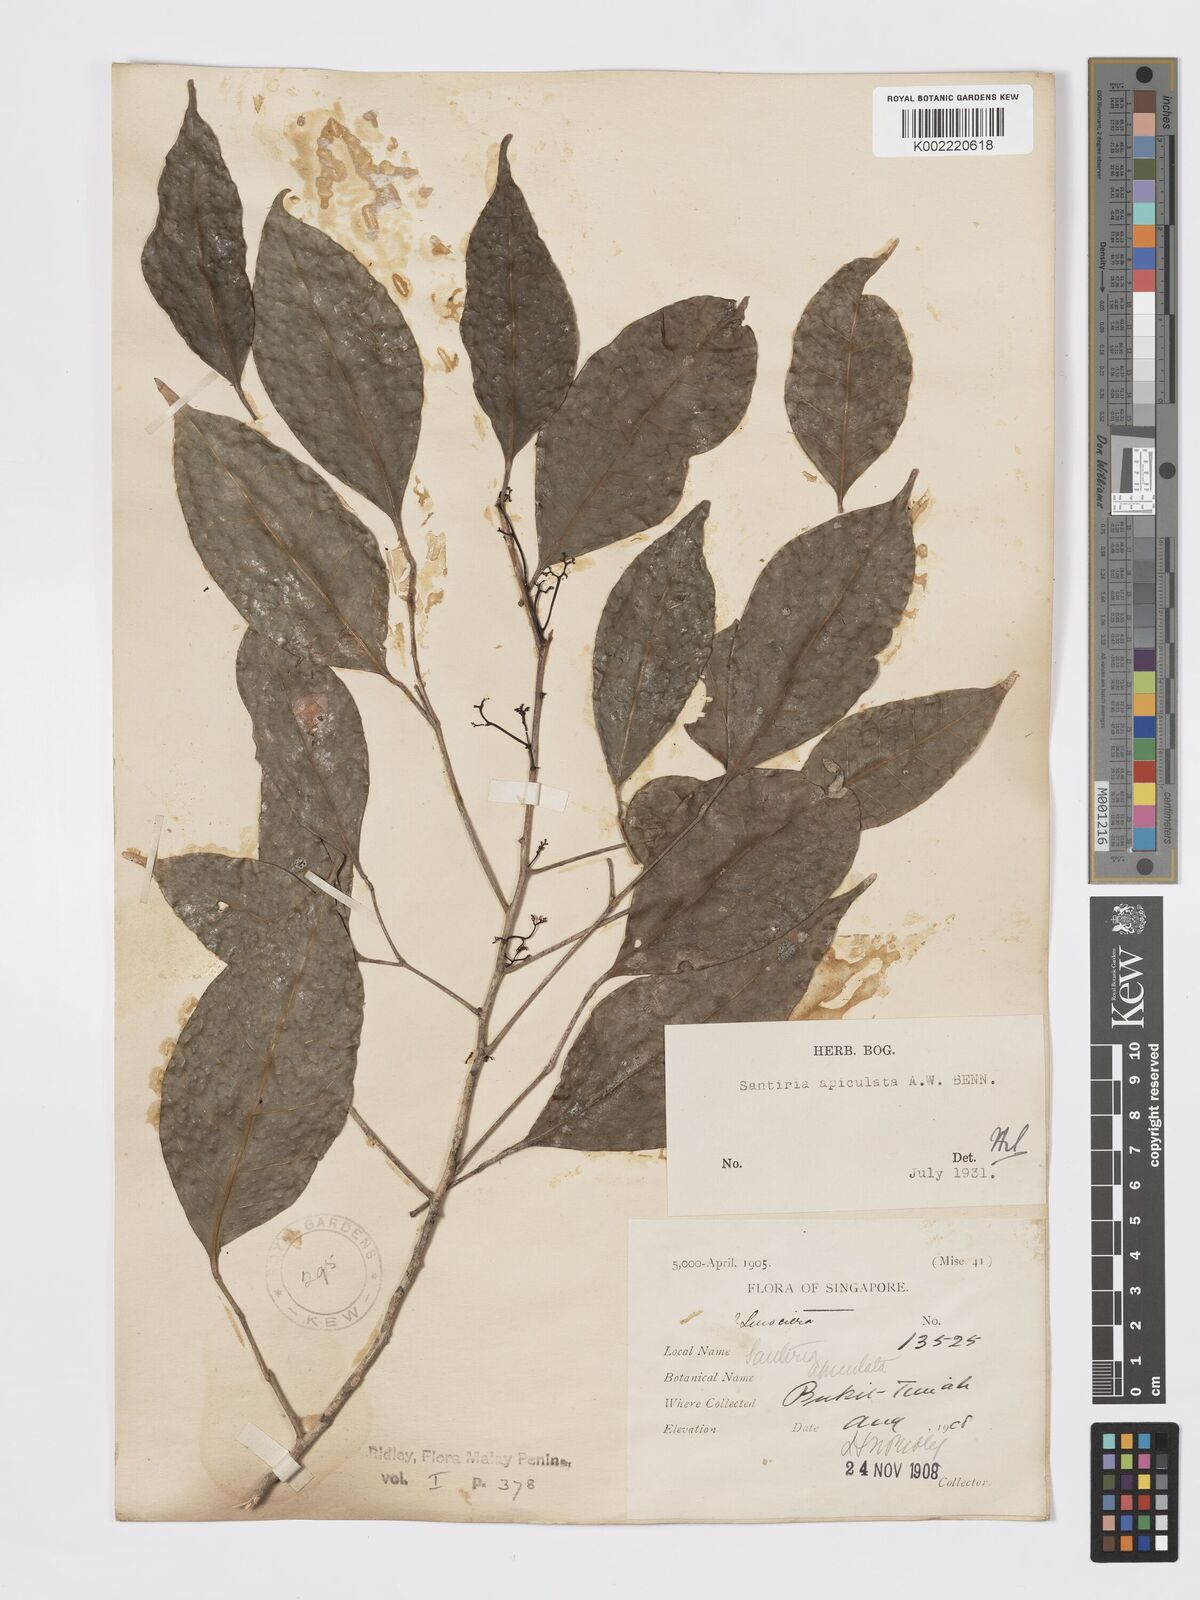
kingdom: Plantae
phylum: Tracheophyta
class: Magnoliopsida
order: Sapindales
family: Burseraceae
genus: Santiria
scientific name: Santiria apiculata
